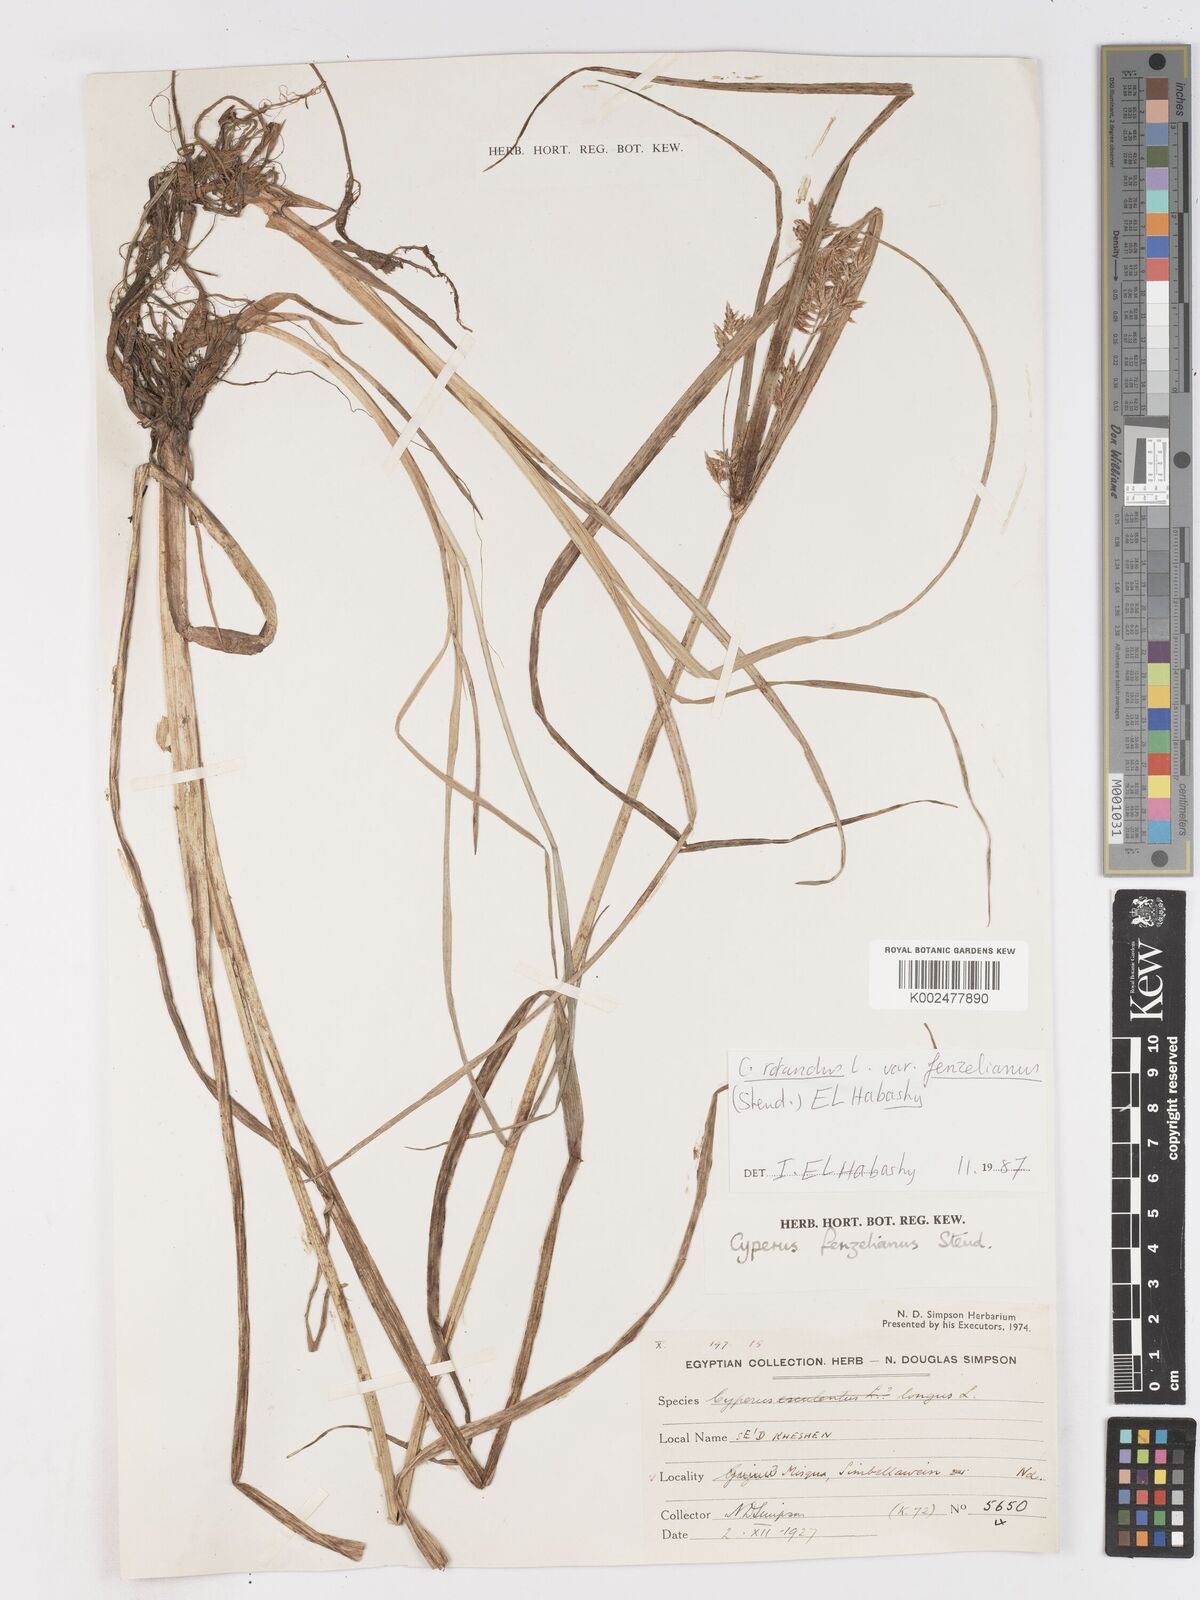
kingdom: Plantae
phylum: Tracheophyta
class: Liliopsida
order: Poales
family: Cyperaceae
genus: Cyperus
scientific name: Cyperus longus
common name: Galingale
